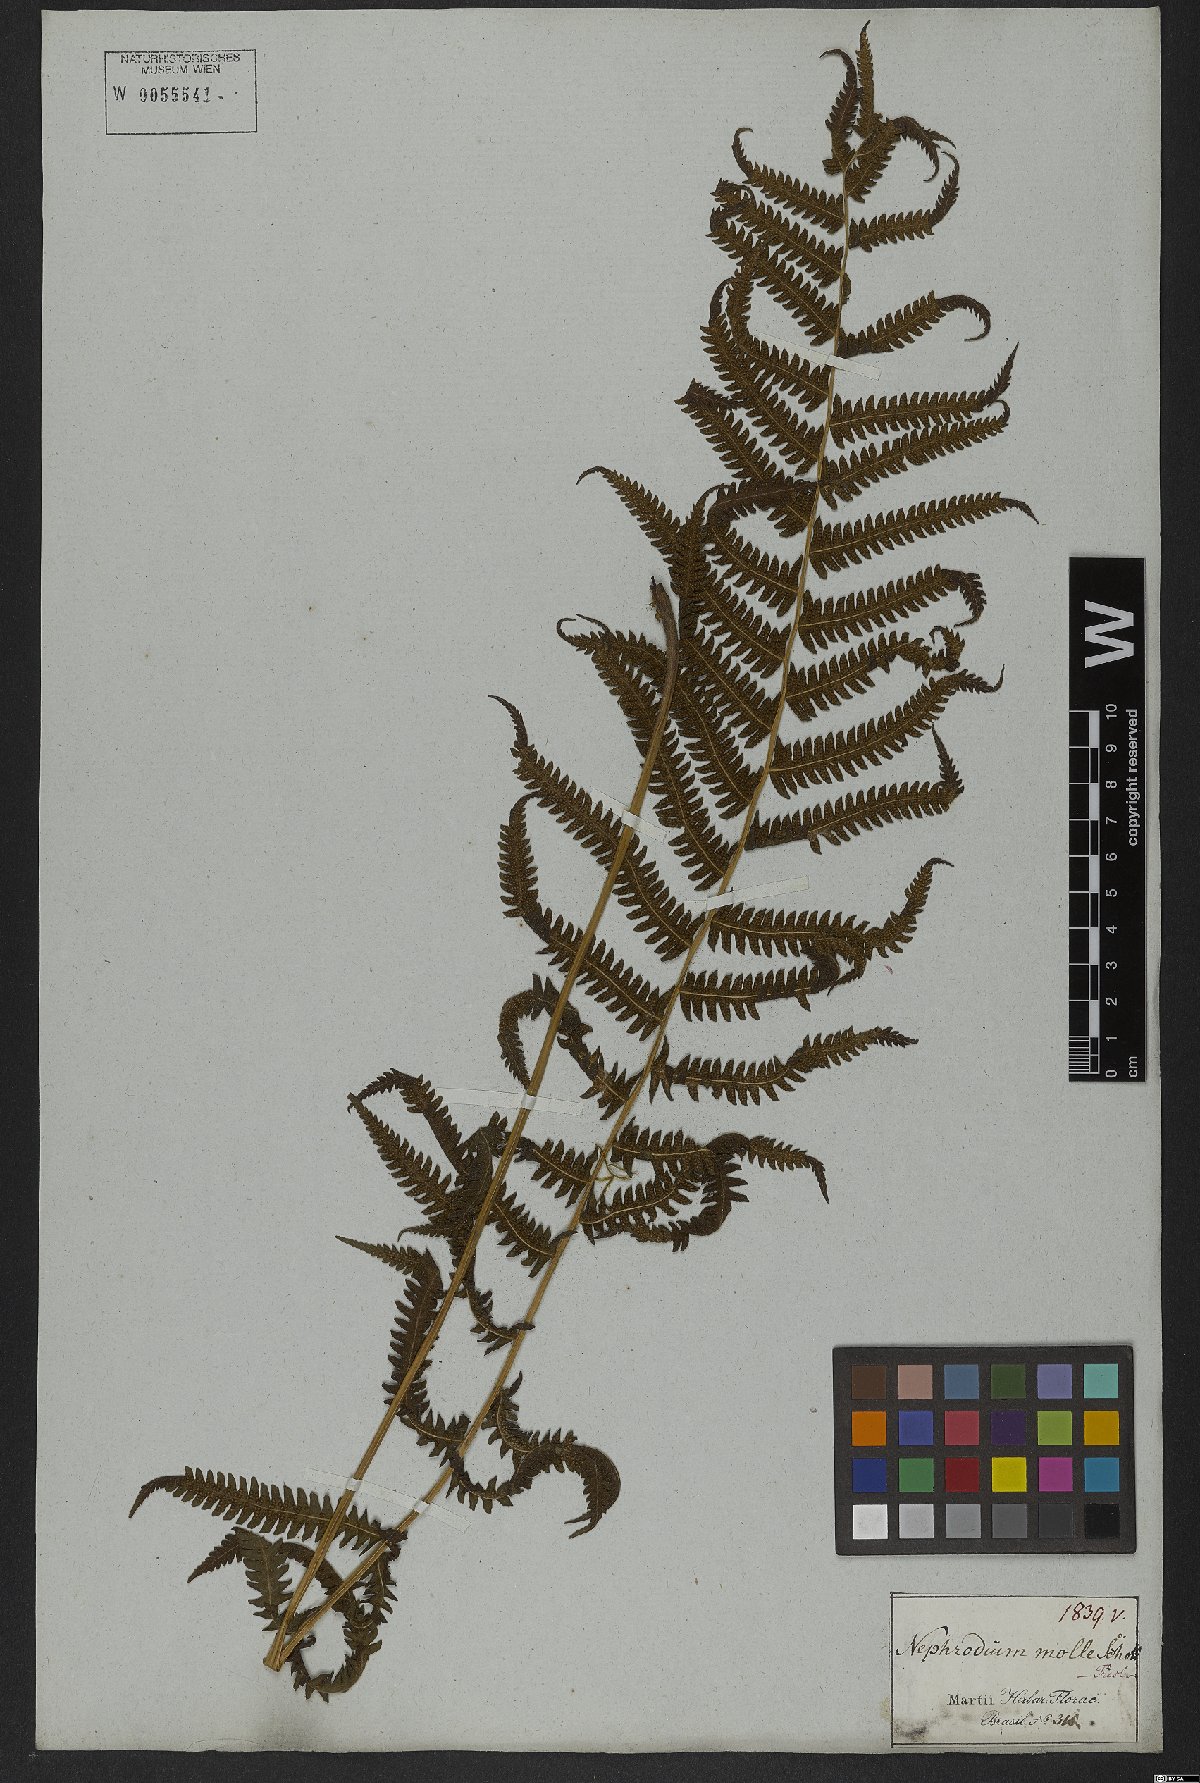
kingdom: Plantae
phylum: Tracheophyta
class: Polypodiopsida
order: Polypodiales
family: Thelypteridaceae
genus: Christella
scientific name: Christella parasitica
